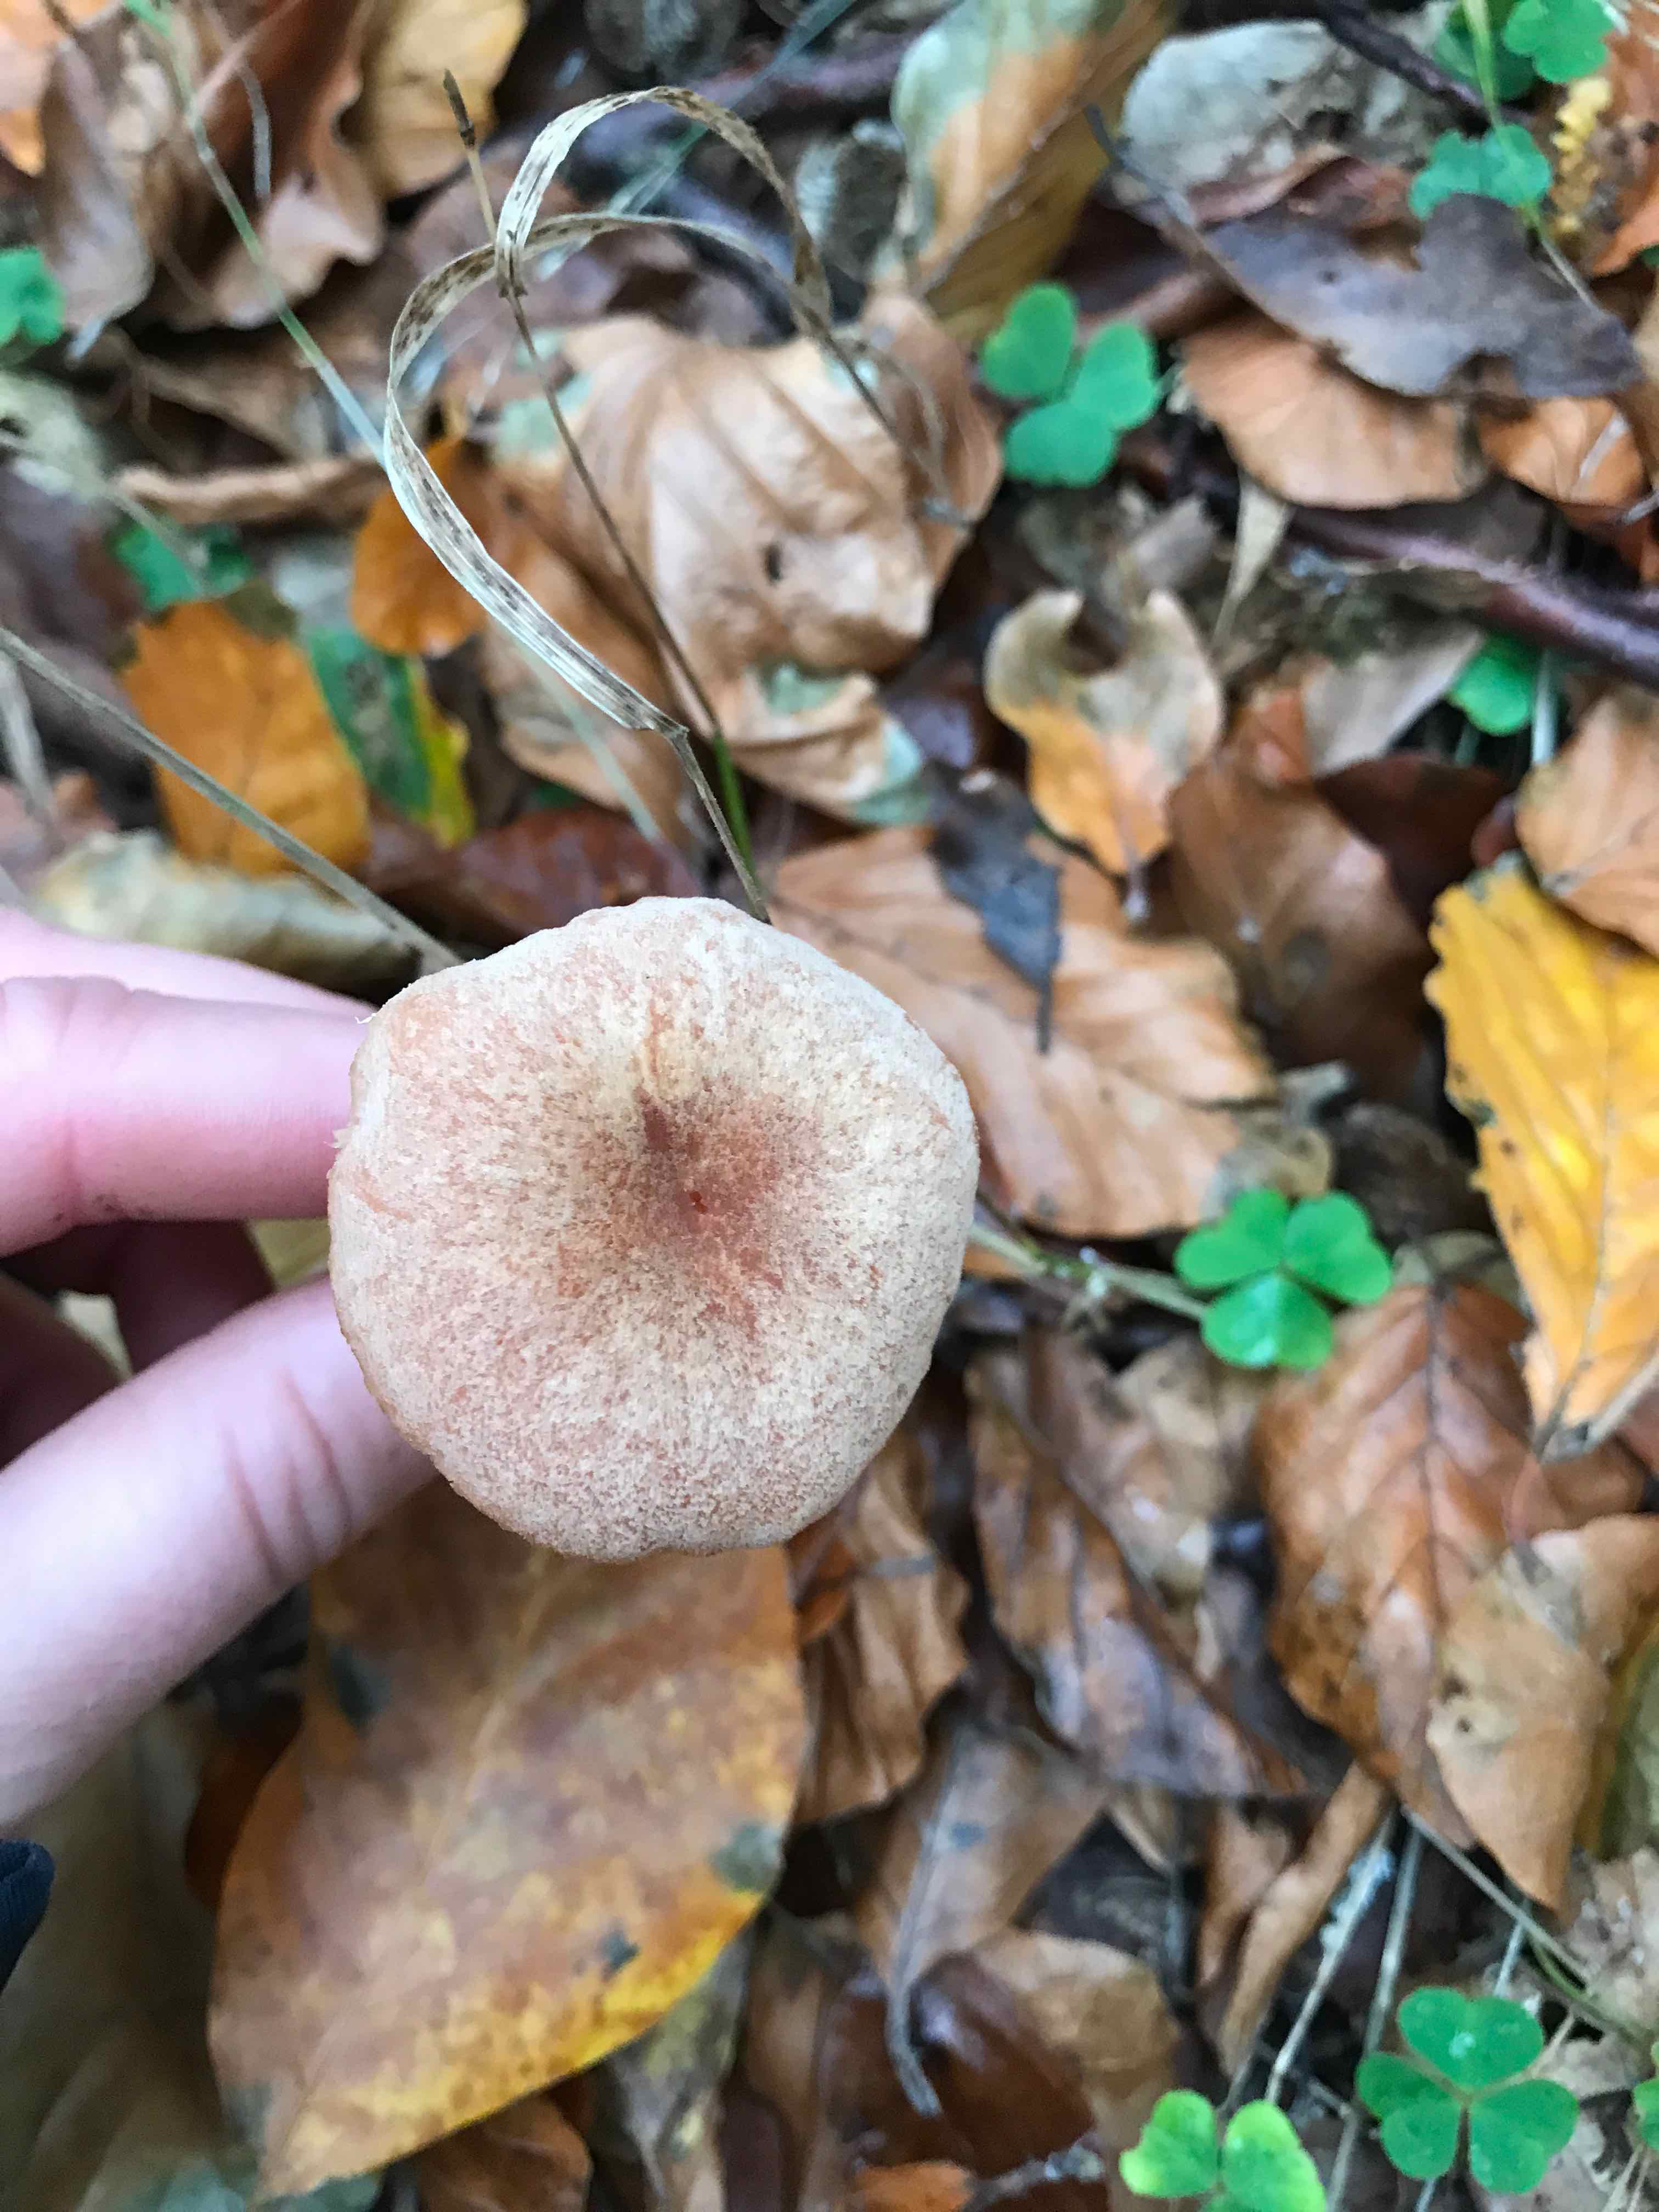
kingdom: Fungi
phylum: Basidiomycota
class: Agaricomycetes
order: Agaricales
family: Hydnangiaceae
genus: Laccaria
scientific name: Laccaria laccata
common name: rød ametysthat
